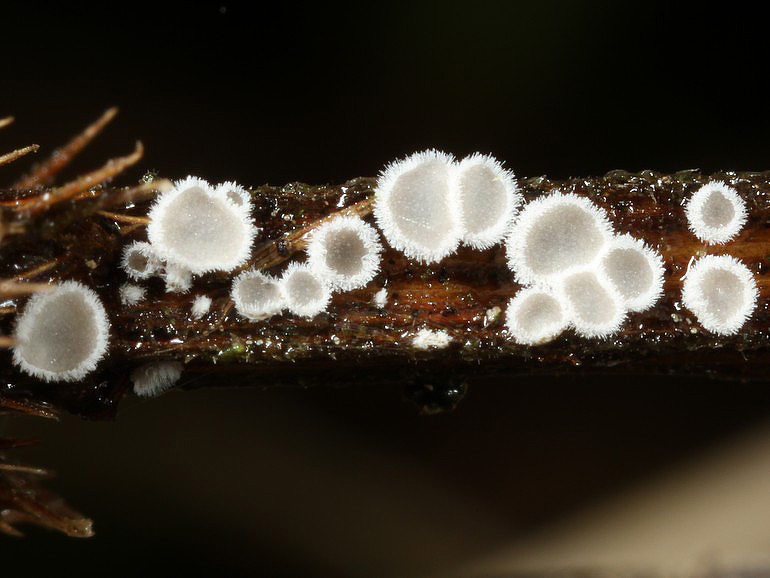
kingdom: Fungi
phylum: Basidiomycota
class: Agaricomycetes
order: Agaricales
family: Niaceae
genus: Lachnella
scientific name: Lachnella alboviolascens
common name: grå frynserede
